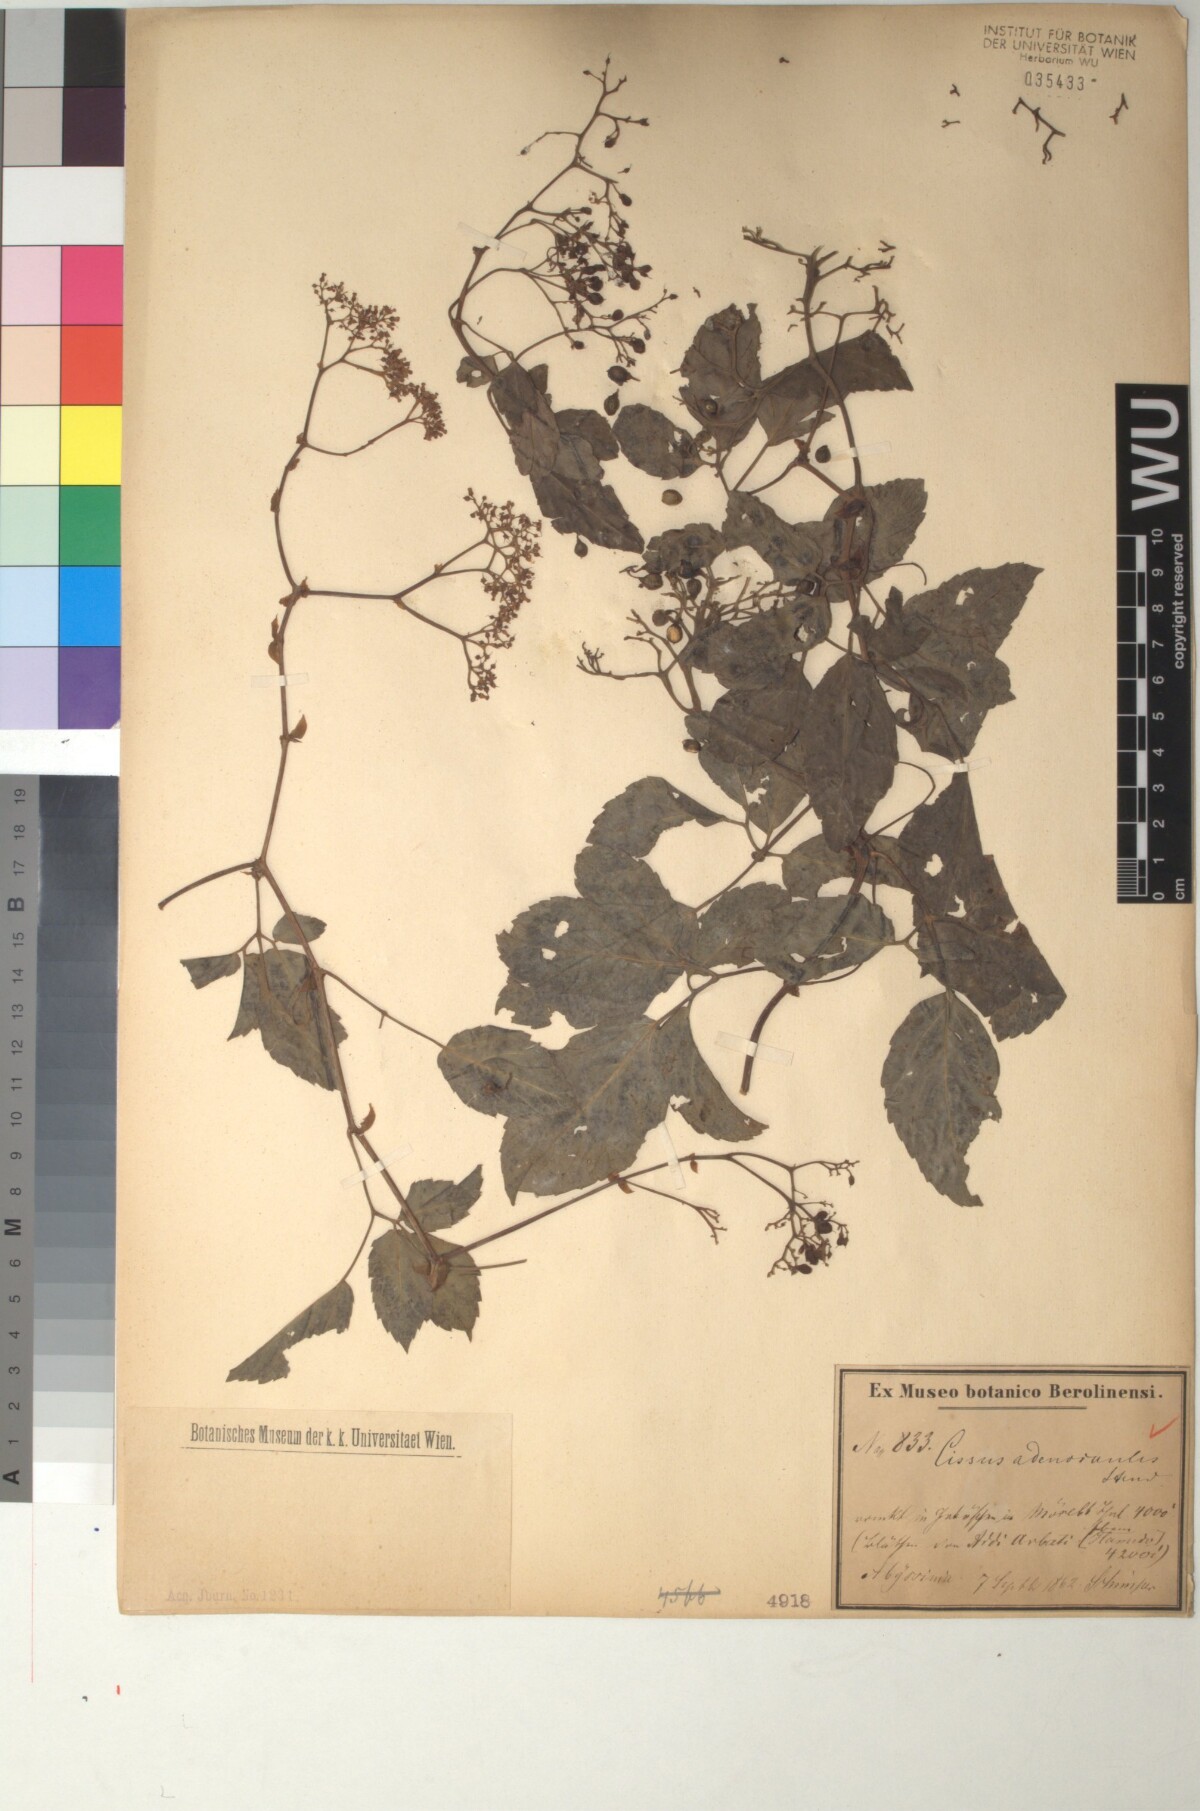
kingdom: Plantae
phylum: Tracheophyta
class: Magnoliopsida
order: Vitales
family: Vitaceae
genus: Cyphostemma
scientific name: Cyphostemma adenocaule
